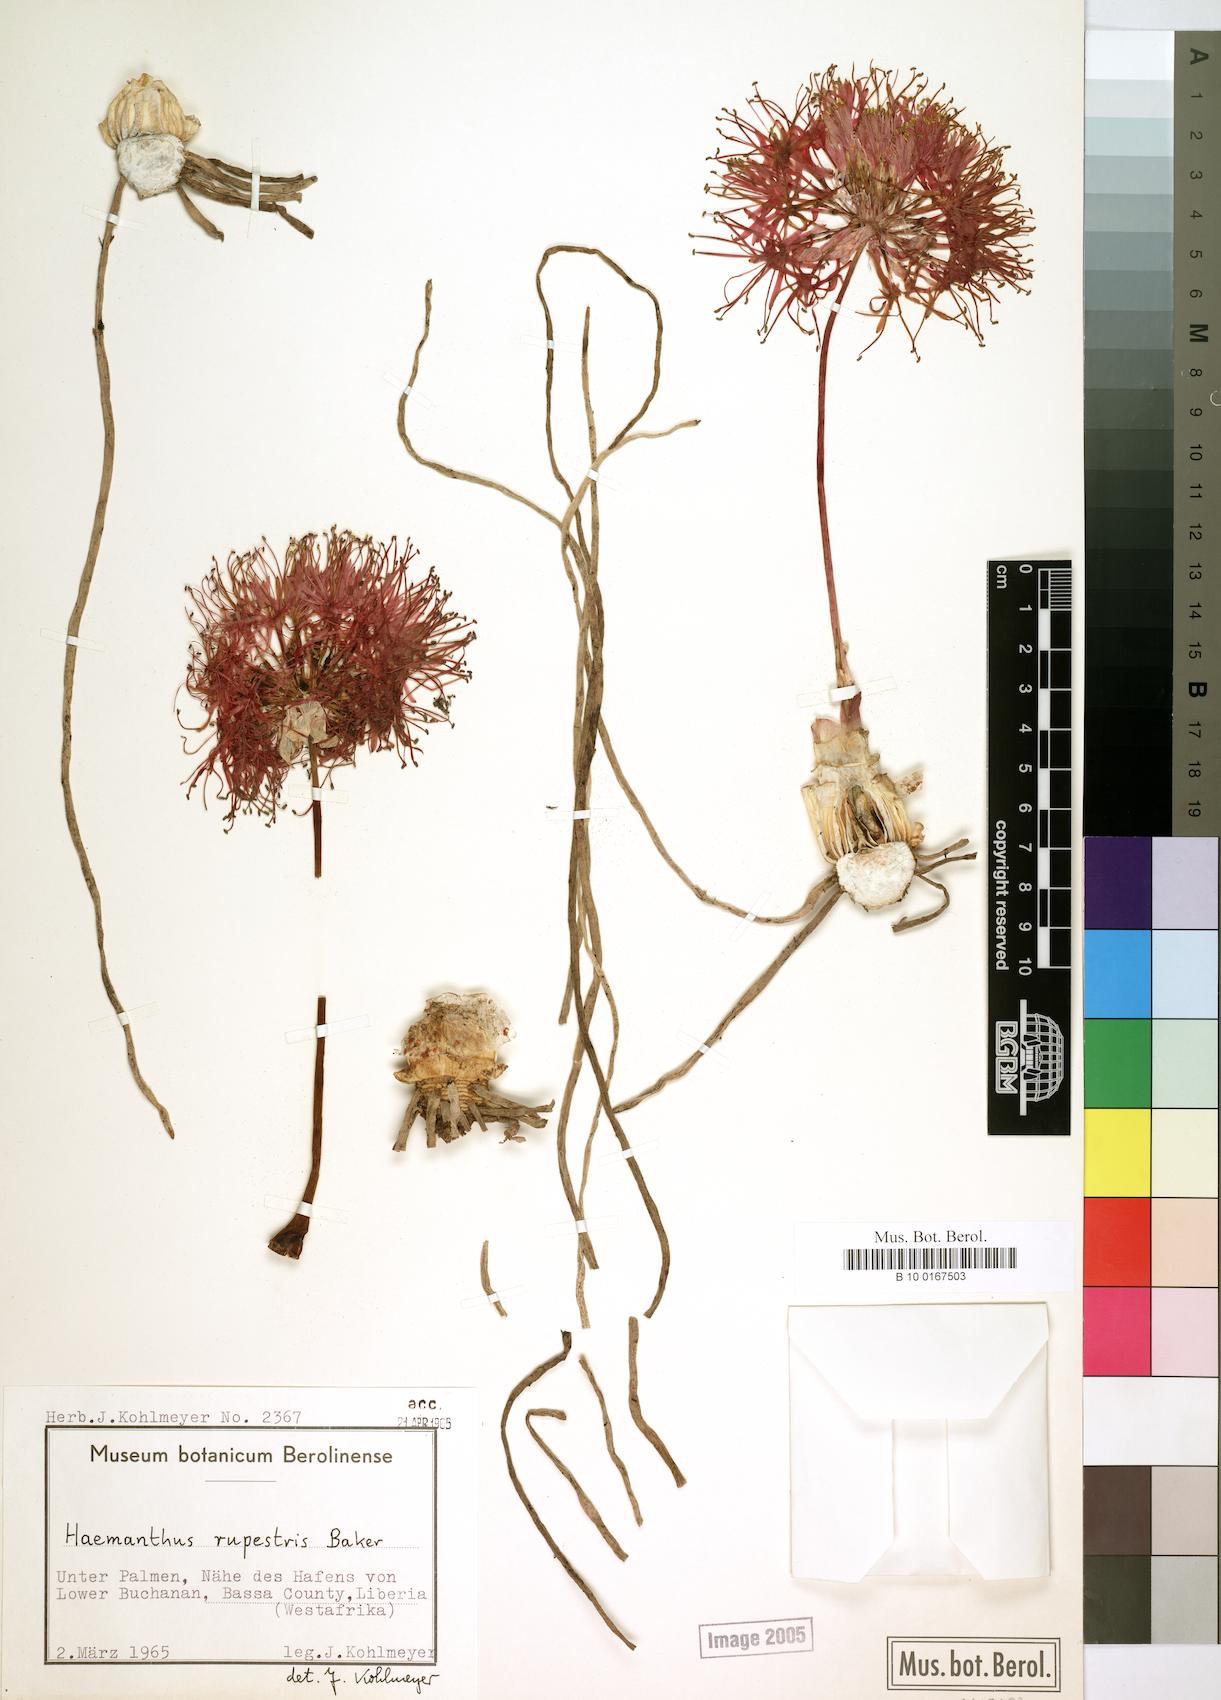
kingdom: Plantae
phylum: Tracheophyta
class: Liliopsida
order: Asparagales
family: Amaryllidaceae
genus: Scadoxus
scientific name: Scadoxus multiflorus
